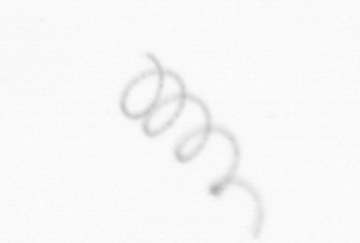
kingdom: Chromista
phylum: Ochrophyta
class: Bacillariophyceae
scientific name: Bacillariophyceae
